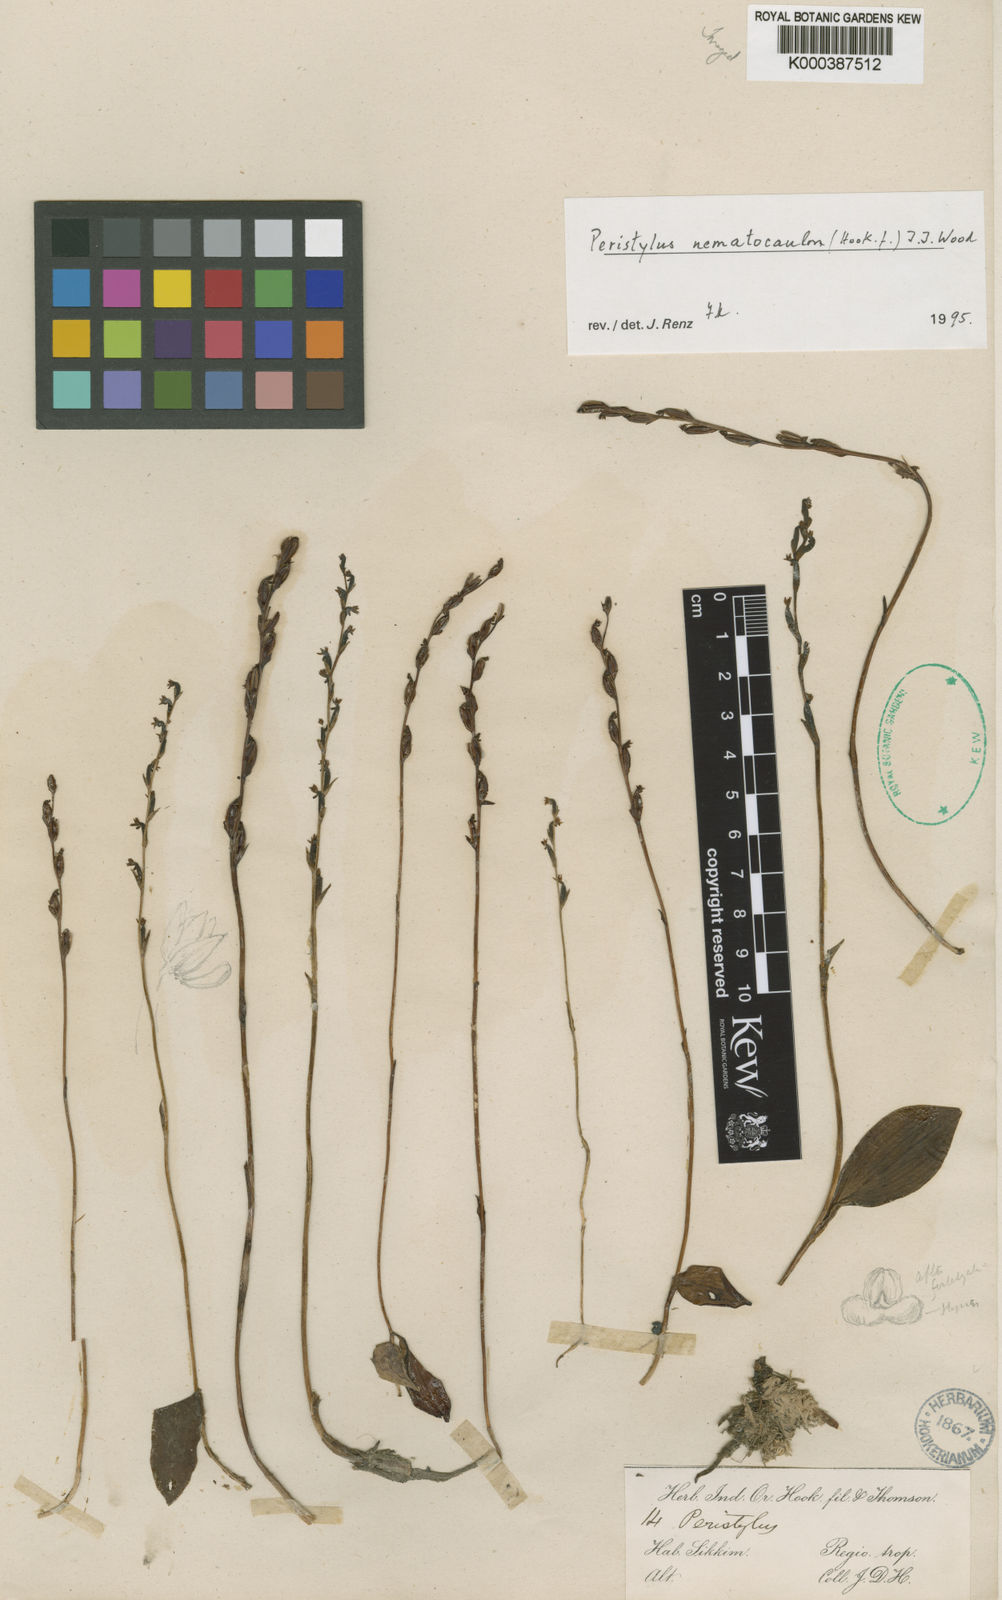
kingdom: Plantae
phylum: Tracheophyta
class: Liliopsida
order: Asparagales
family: Orchidaceae
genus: Peristylus
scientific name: Peristylus
